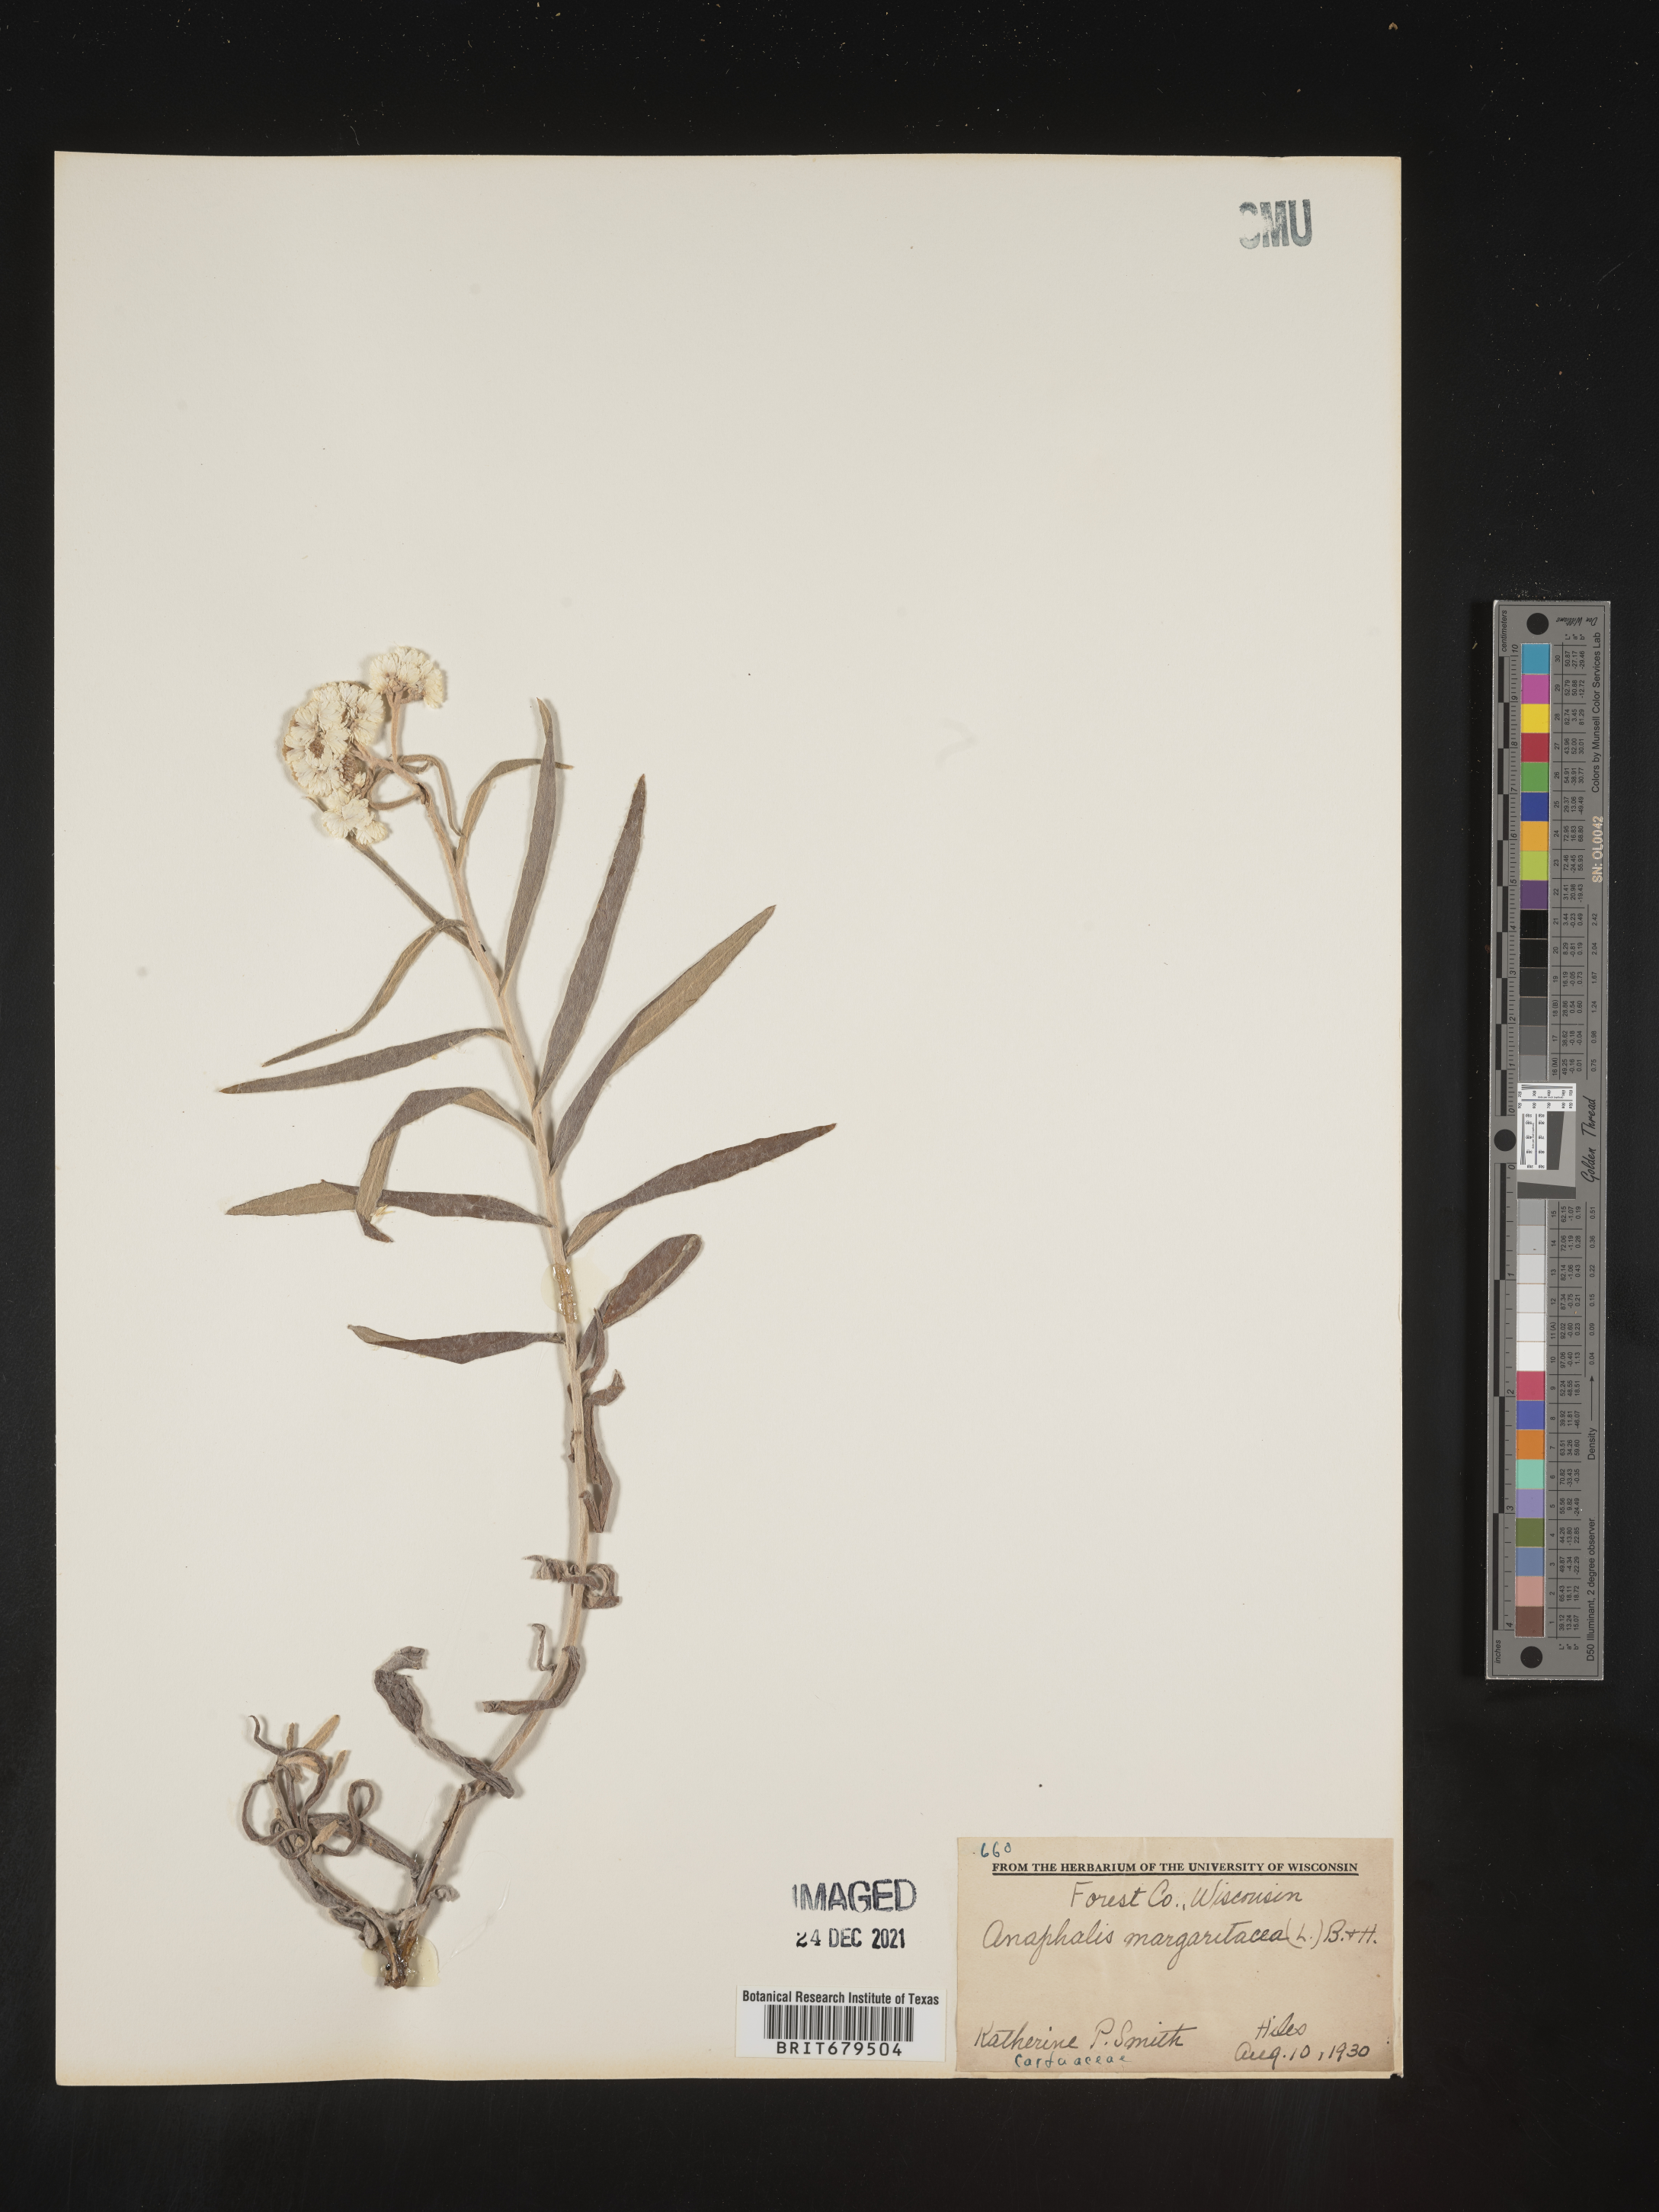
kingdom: Plantae
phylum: Tracheophyta
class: Magnoliopsida
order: Asterales
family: Asteraceae
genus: Anaphalis
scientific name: Anaphalis margaritacea
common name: Pearly everlasting
